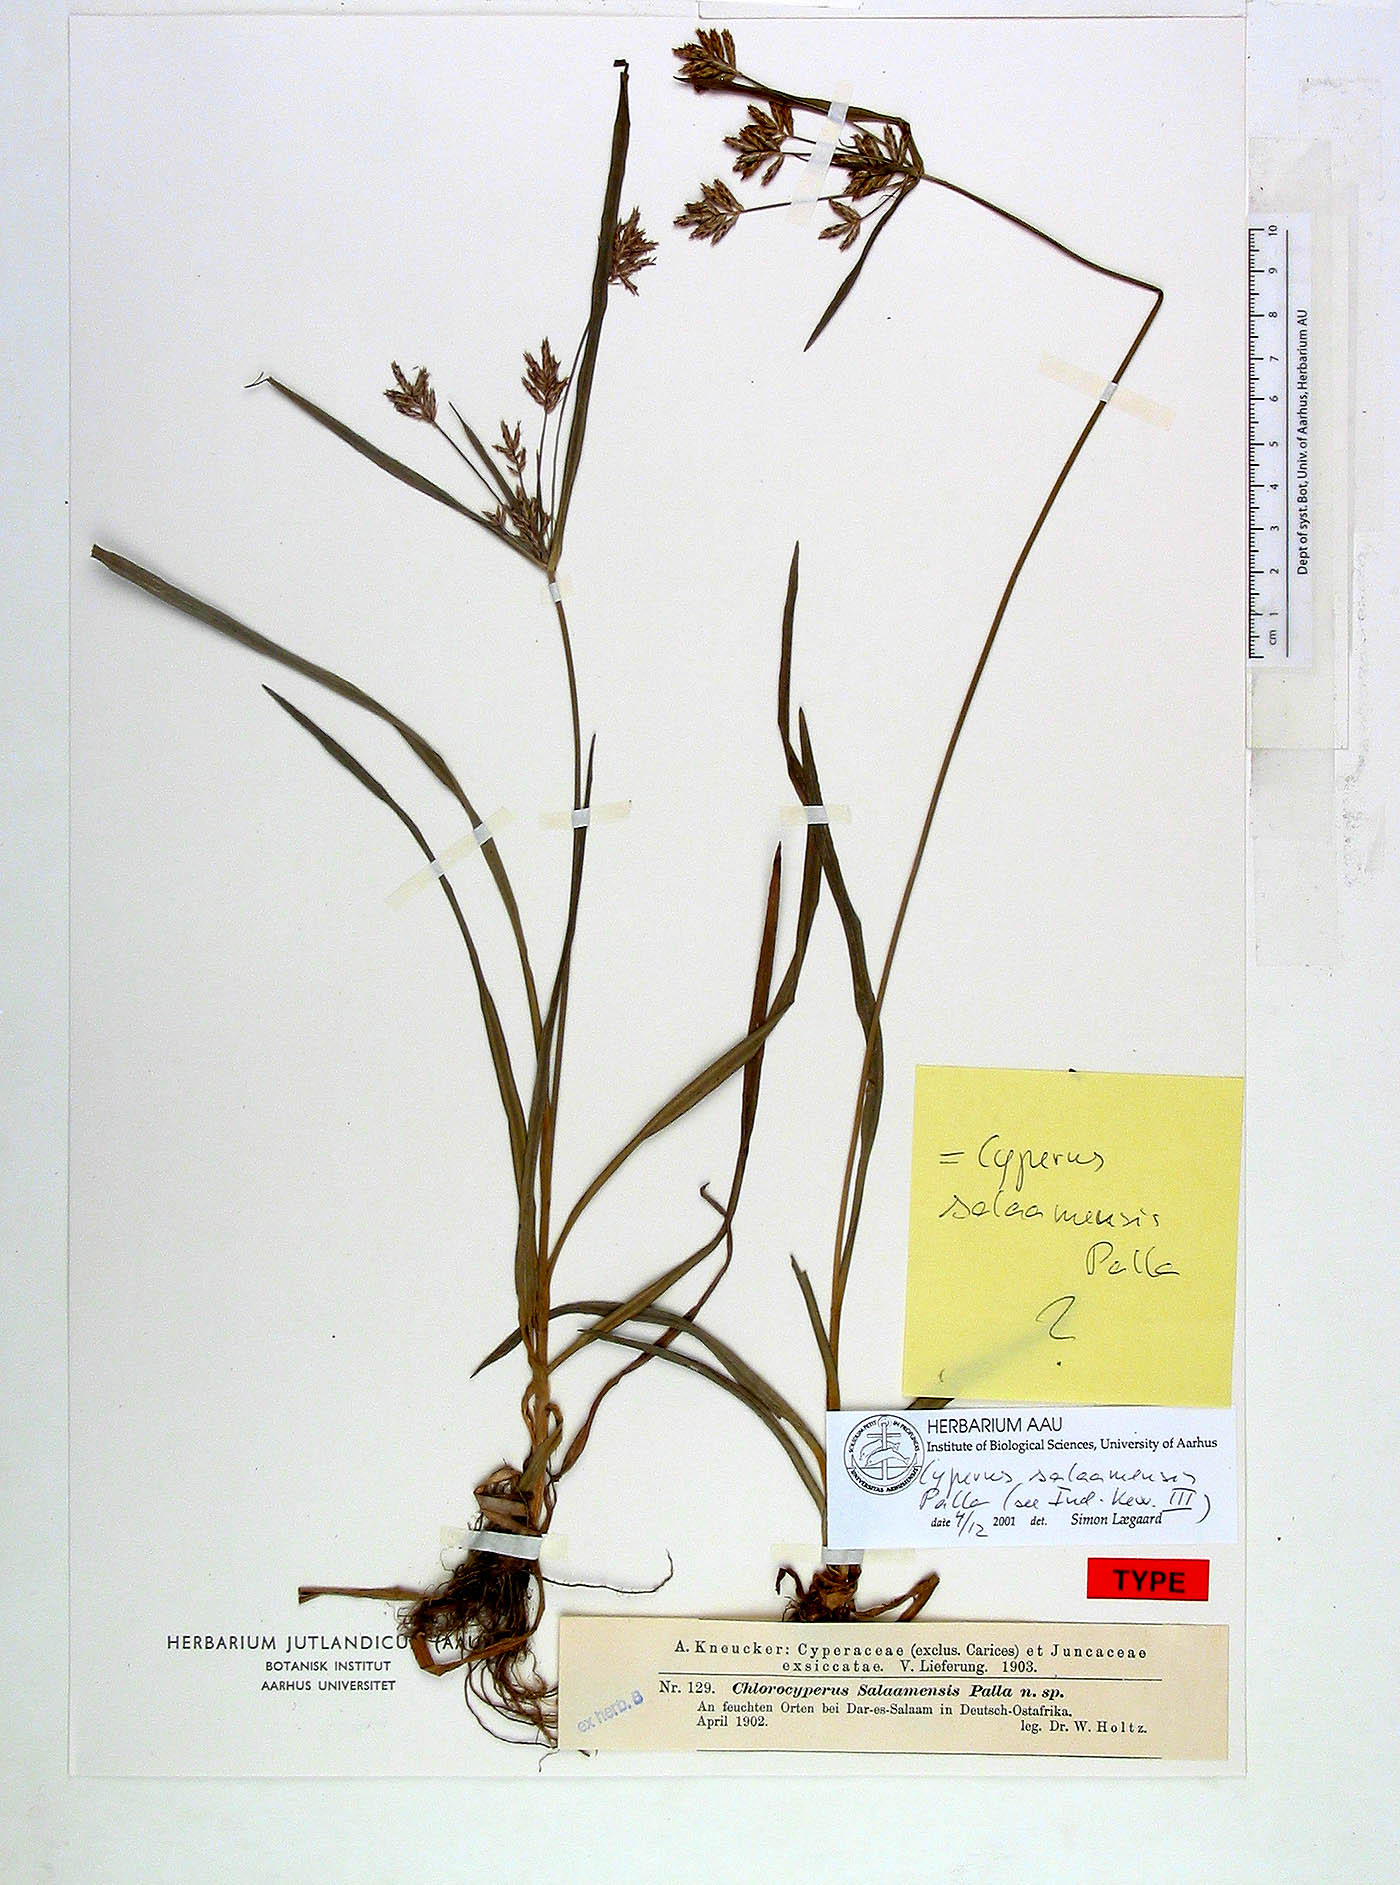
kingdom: Plantae
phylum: Tracheophyta
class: Liliopsida
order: Poales
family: Cyperaceae
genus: Cyperus
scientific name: Cyperus tuberosus
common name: Nut grass
